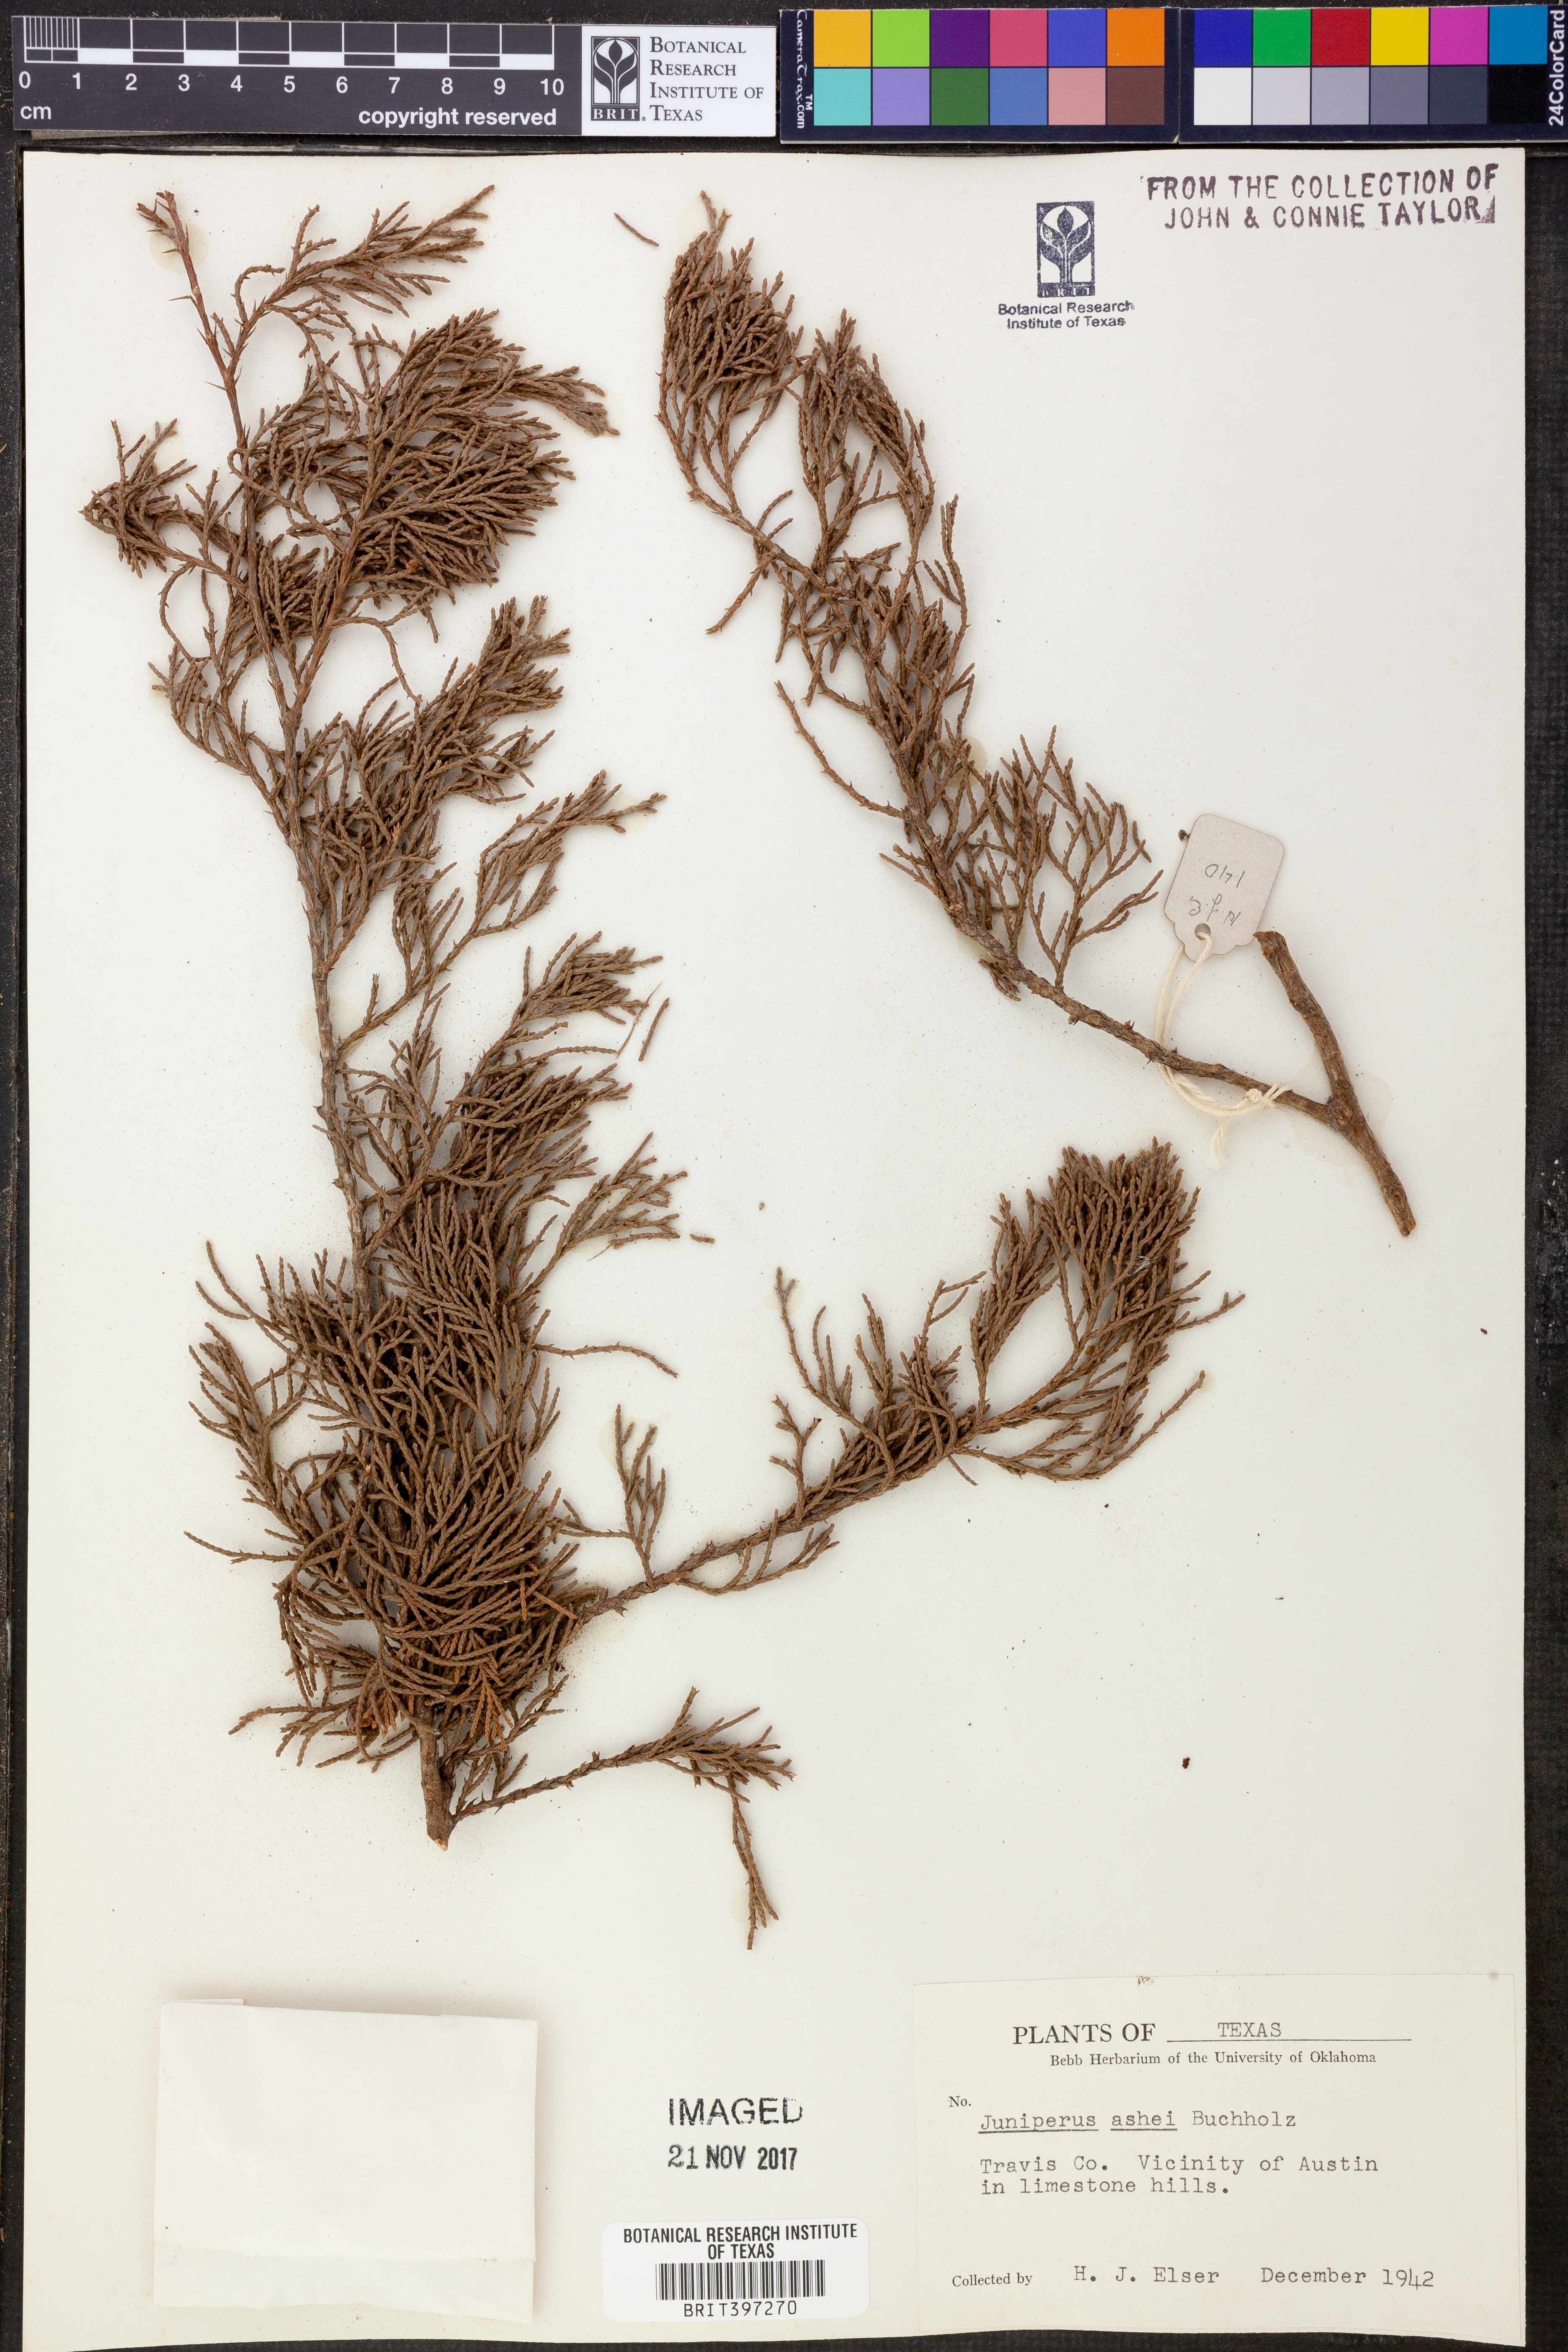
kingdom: Plantae
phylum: Tracheophyta
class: Pinopsida
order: Pinales
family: Cupressaceae
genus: Juniperus
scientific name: Juniperus ashei
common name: Mexican juniper
